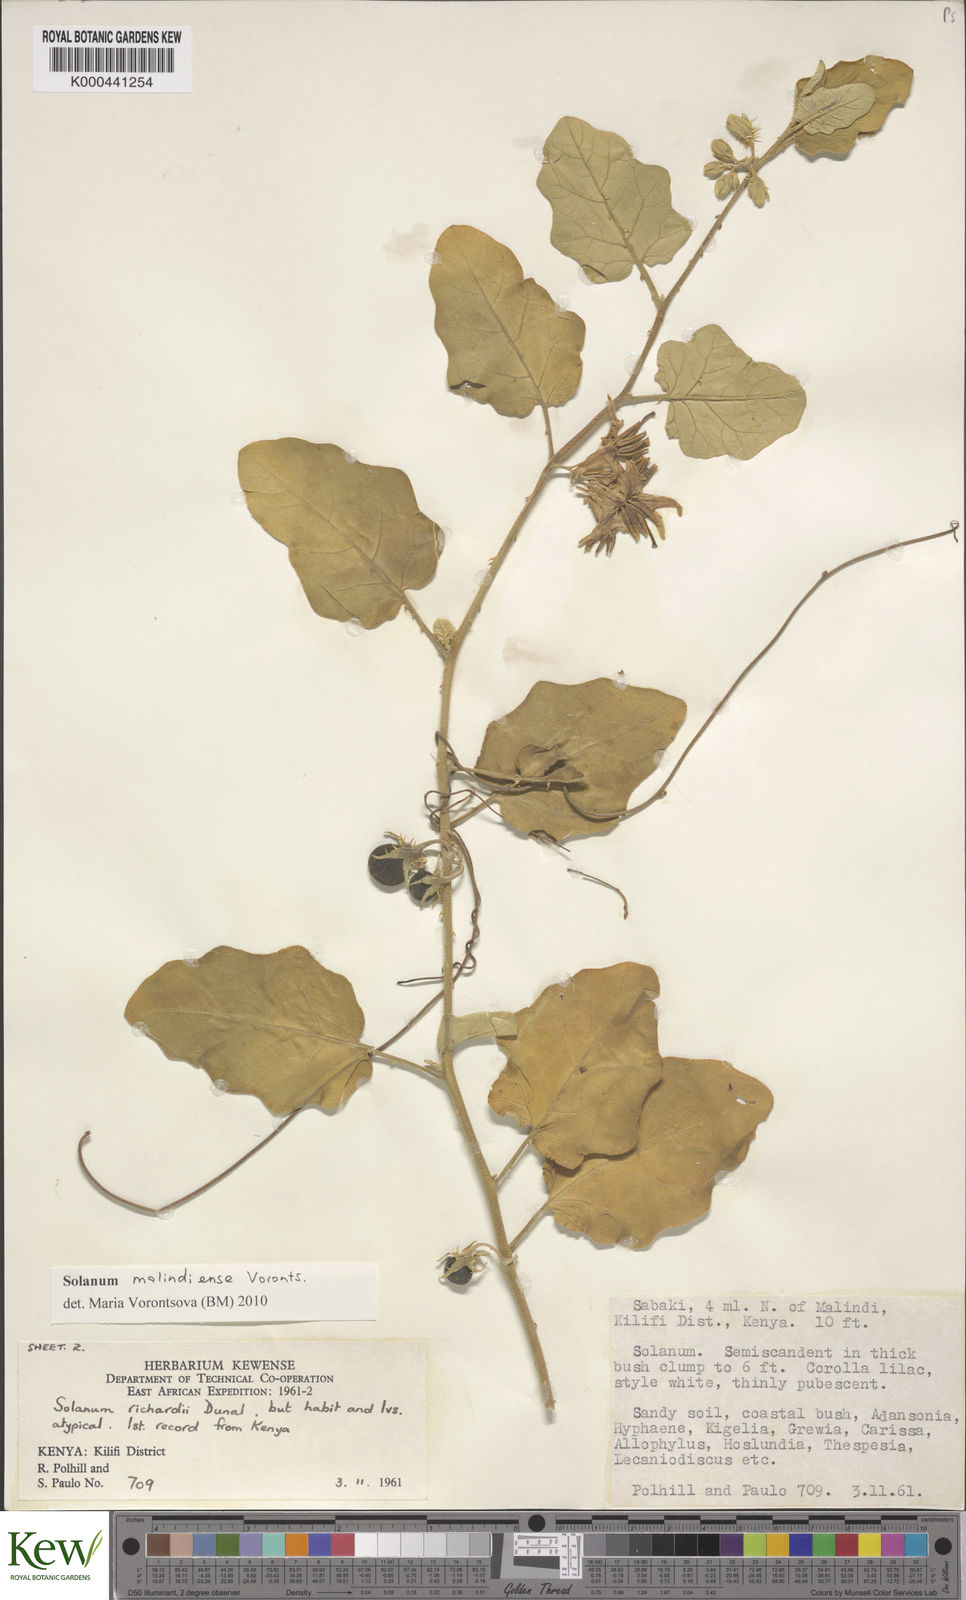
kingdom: Plantae
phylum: Tracheophyta
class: Magnoliopsida
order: Solanales
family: Solanaceae
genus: Solanum
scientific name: Solanum malindiense
